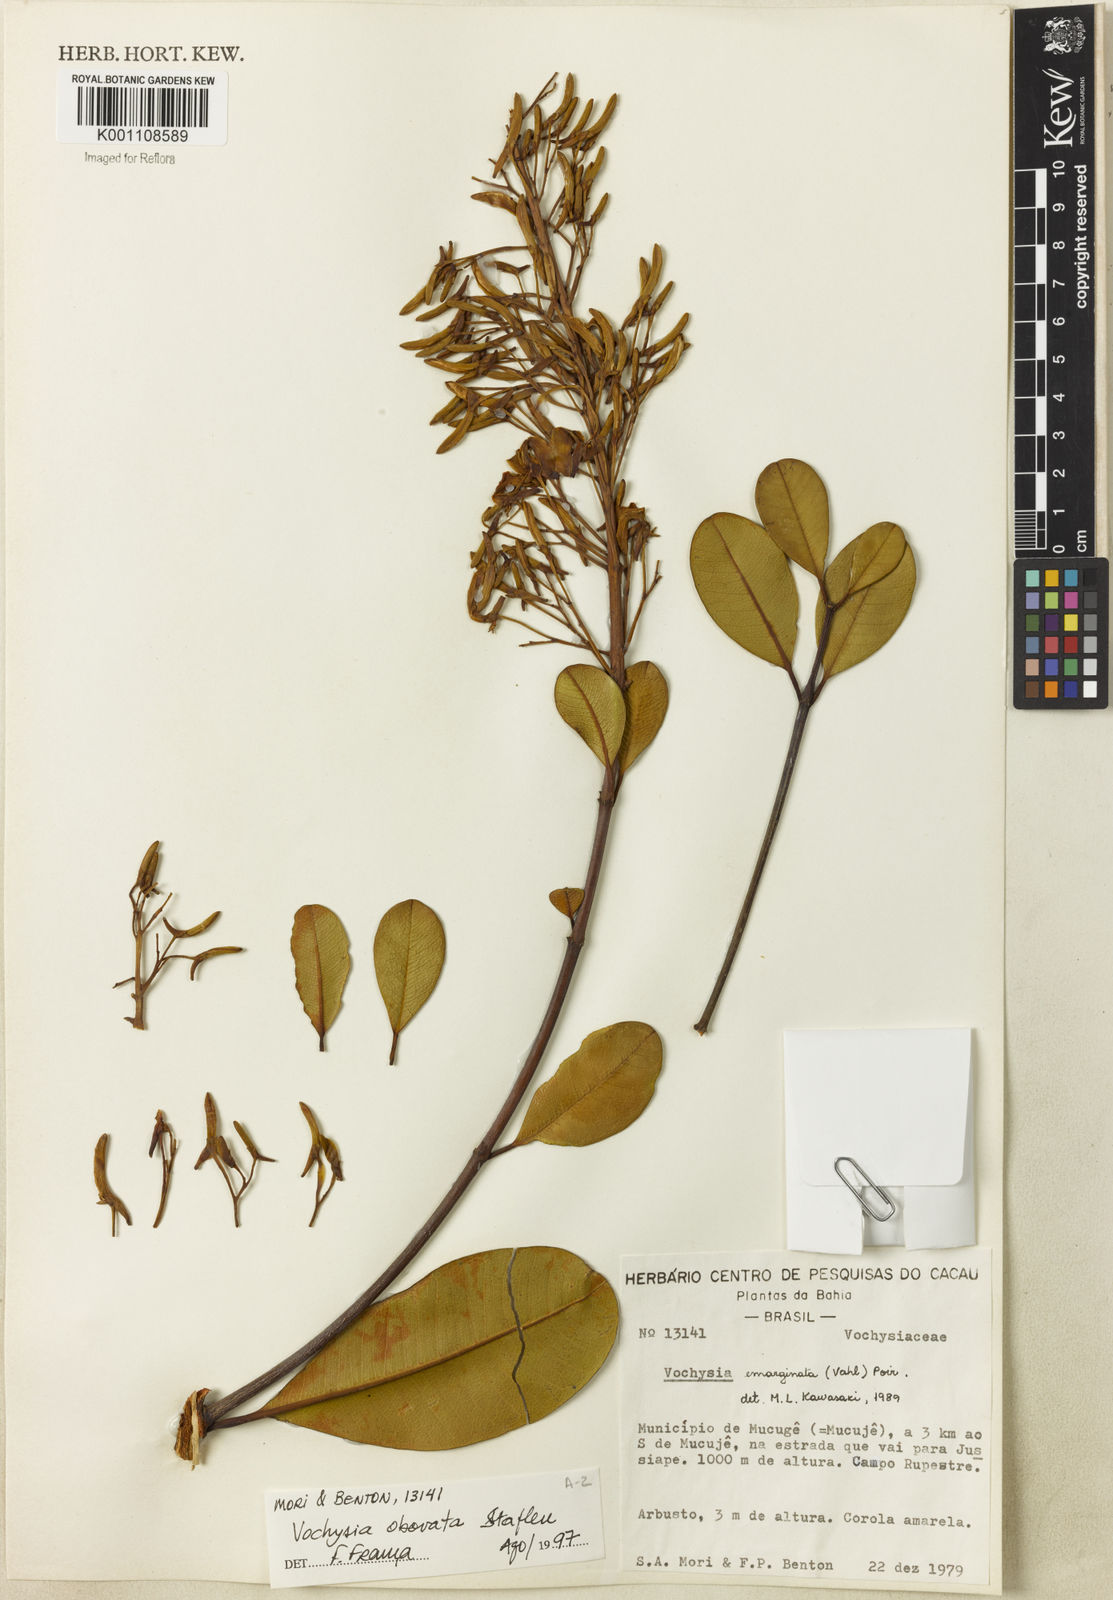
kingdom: Plantae
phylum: Tracheophyta
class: Magnoliopsida
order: Myrtales
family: Vochysiaceae
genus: Vochysia
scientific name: Vochysia obovata
